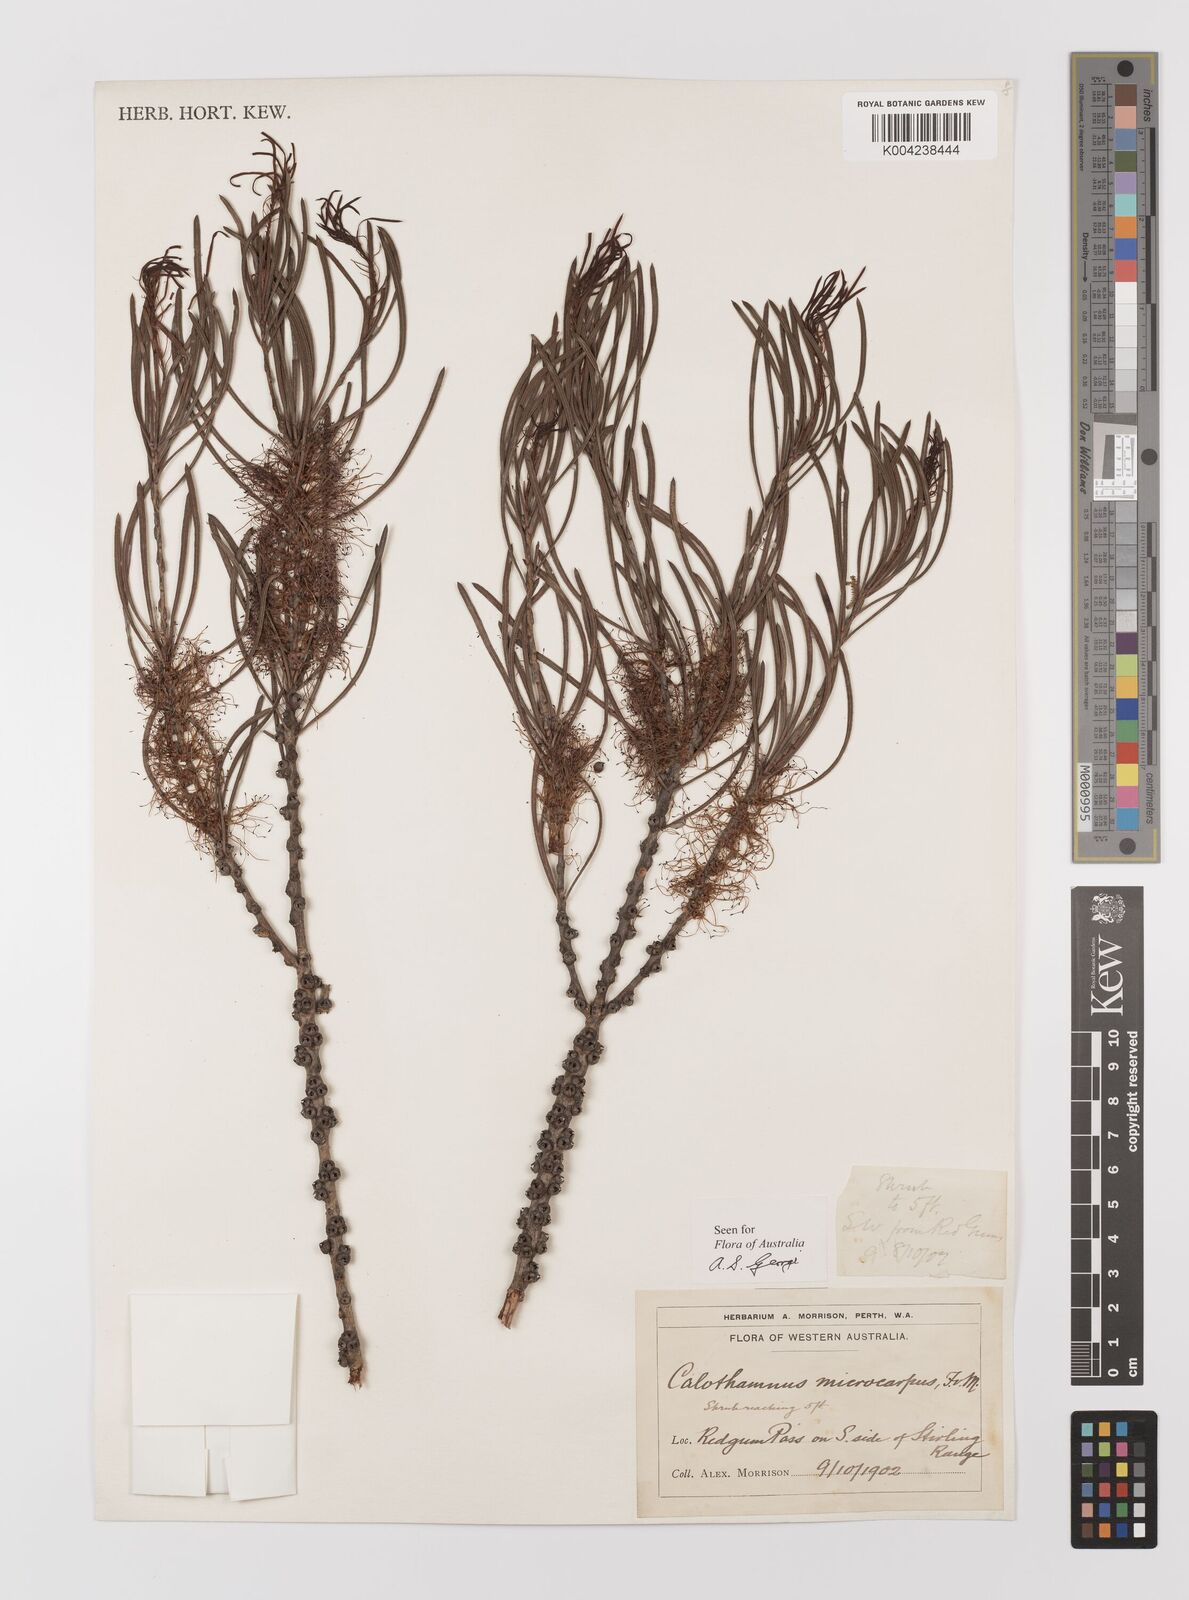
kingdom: Plantae
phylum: Tracheophyta
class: Magnoliopsida
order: Myrtales
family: Myrtaceae
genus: Melaleuca
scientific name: Melaleuca microcarpa
